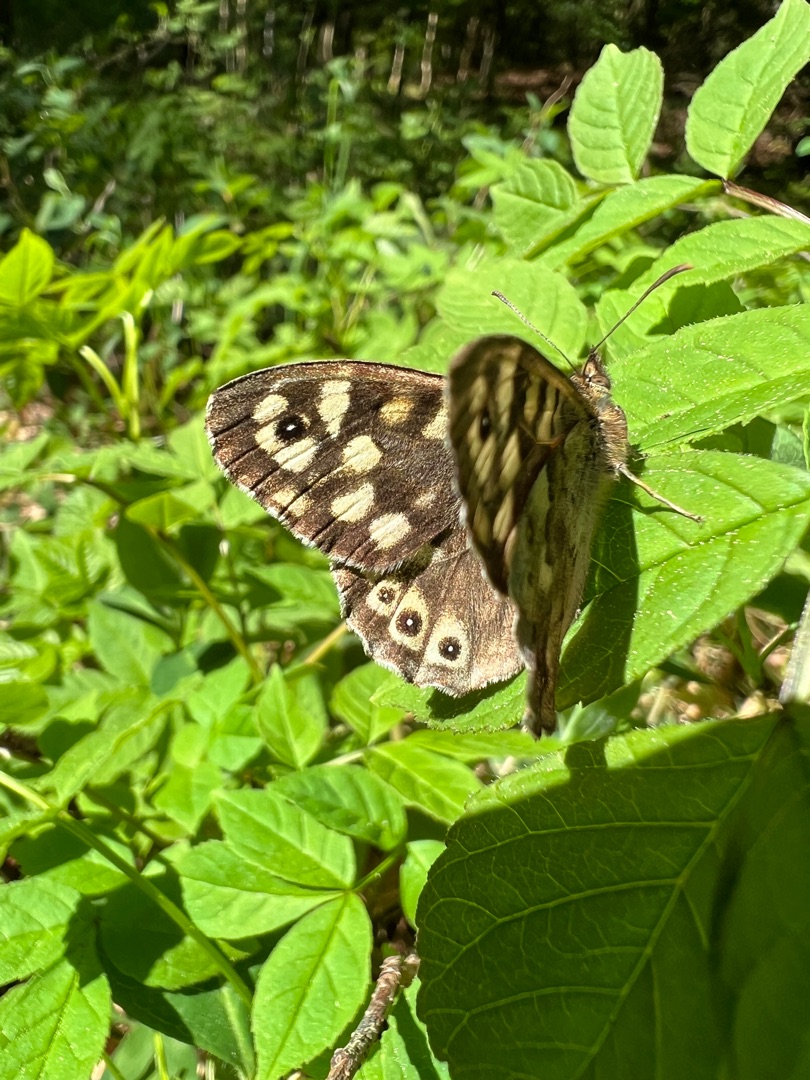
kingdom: Animalia
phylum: Arthropoda
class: Insecta
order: Lepidoptera
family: Nymphalidae
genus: Pararge
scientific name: Pararge aegeria
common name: Skovrandøje
